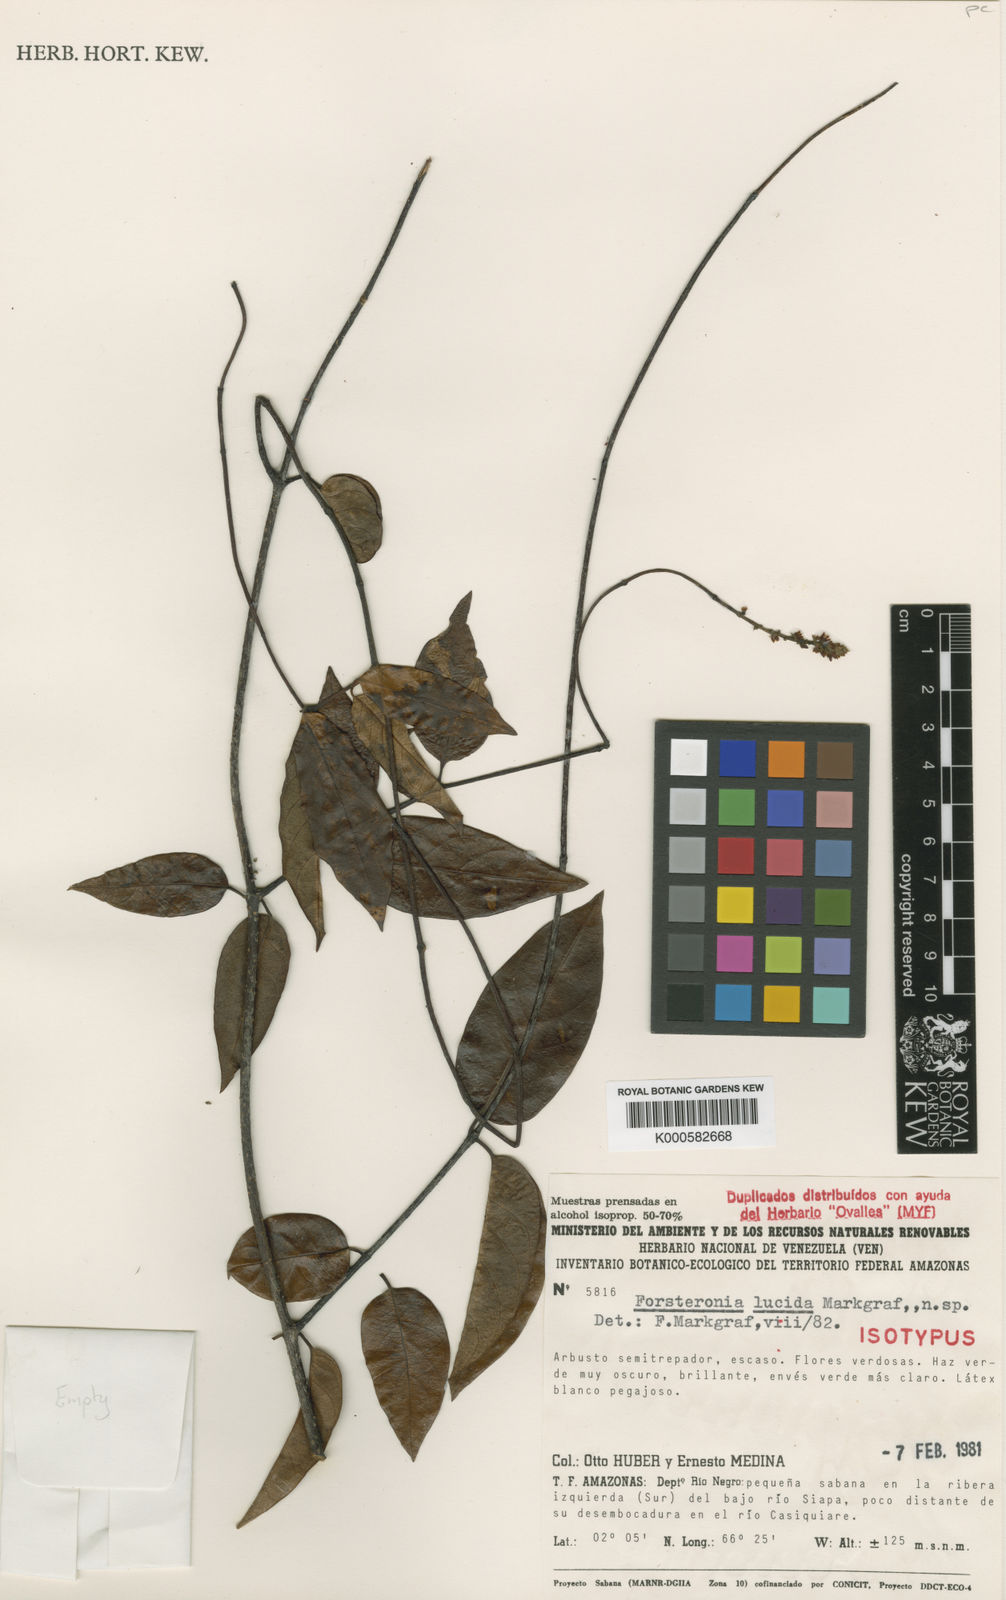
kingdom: Plantae
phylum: Tracheophyta
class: Magnoliopsida
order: Gentianales
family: Apocynaceae
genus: Forsteronia
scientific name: Forsteronia lucida
